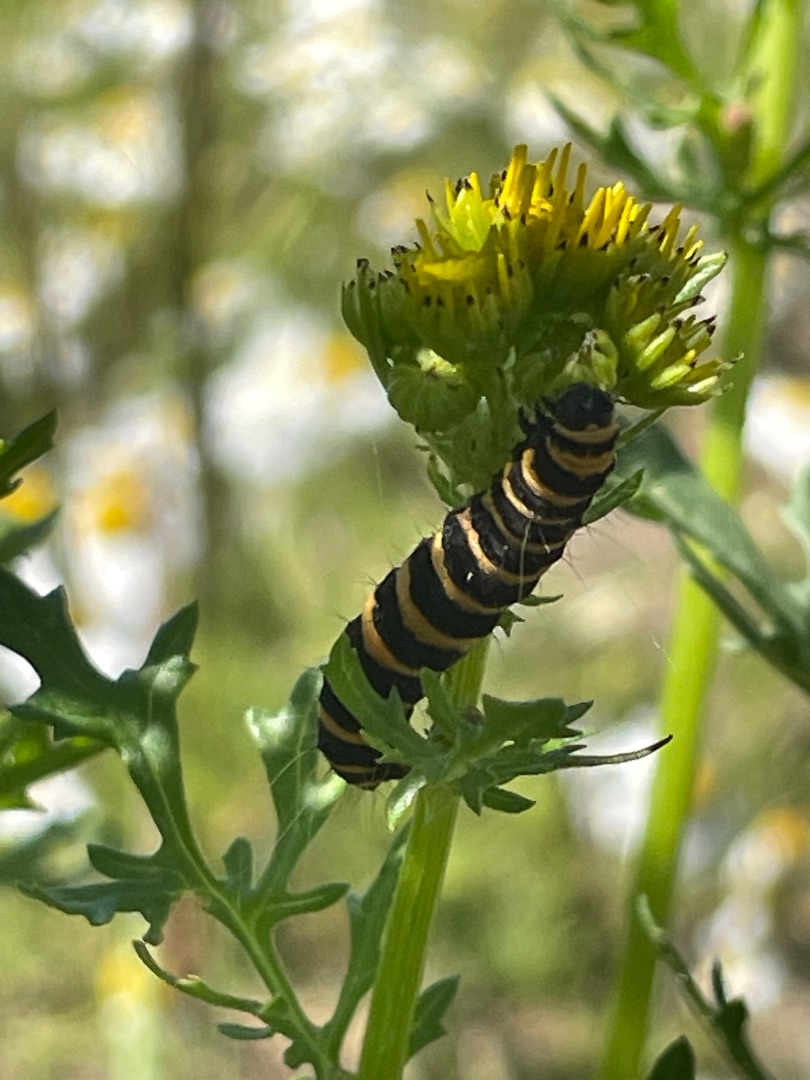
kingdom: Animalia
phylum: Arthropoda
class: Insecta
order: Lepidoptera
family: Erebidae
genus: Tyria
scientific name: Tyria jacobaeae
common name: Blodplet
